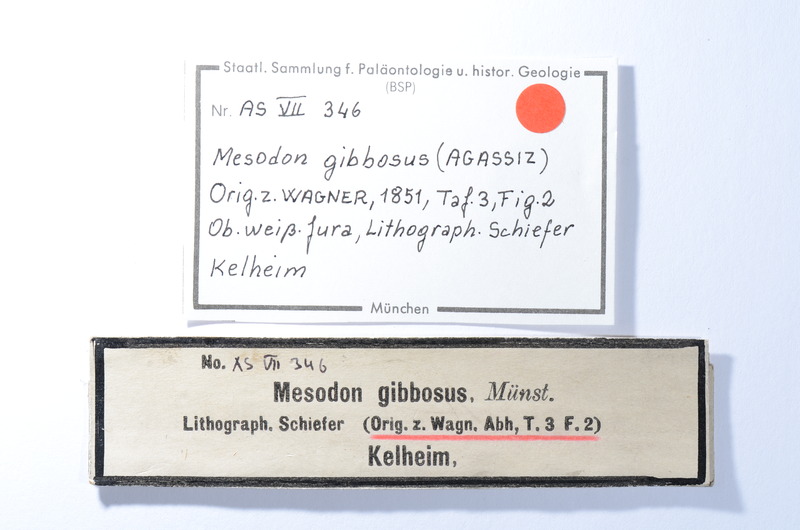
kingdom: Animalia
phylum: Chordata
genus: Apomesodon
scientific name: Apomesodon gibbosus
